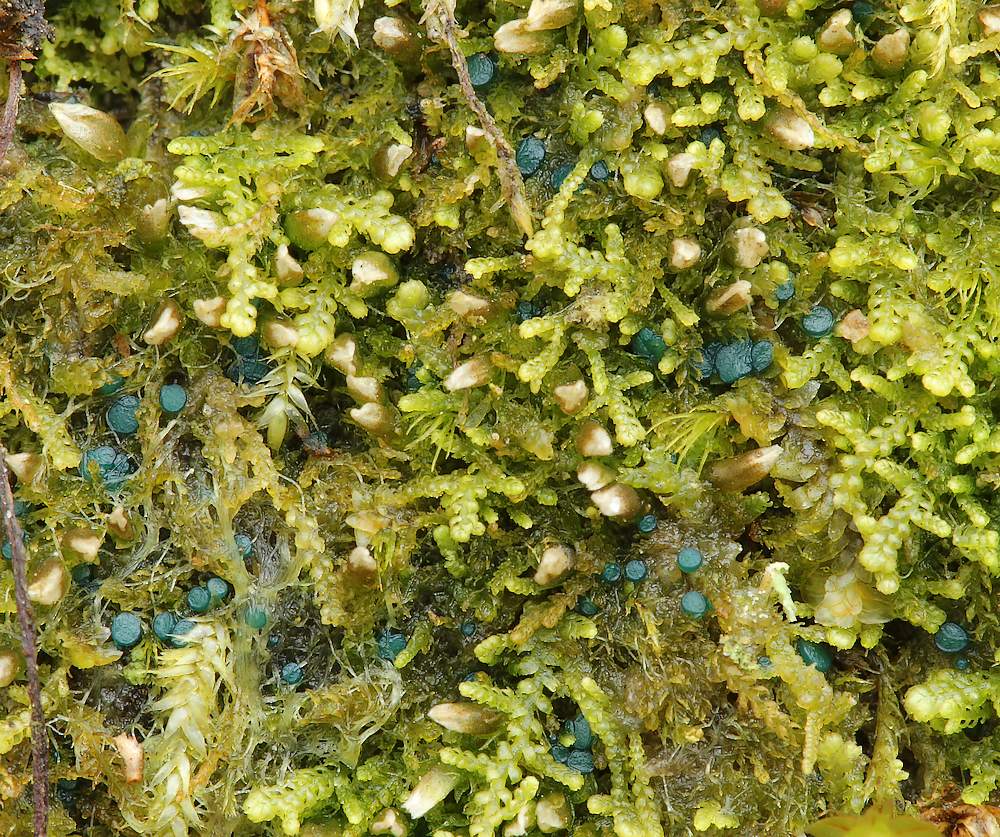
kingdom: Fungi
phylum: Ascomycota
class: Leotiomycetes
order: Leotiales
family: Mniaeciaceae
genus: Mniaecia
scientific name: Mniaecia jungermanniae
